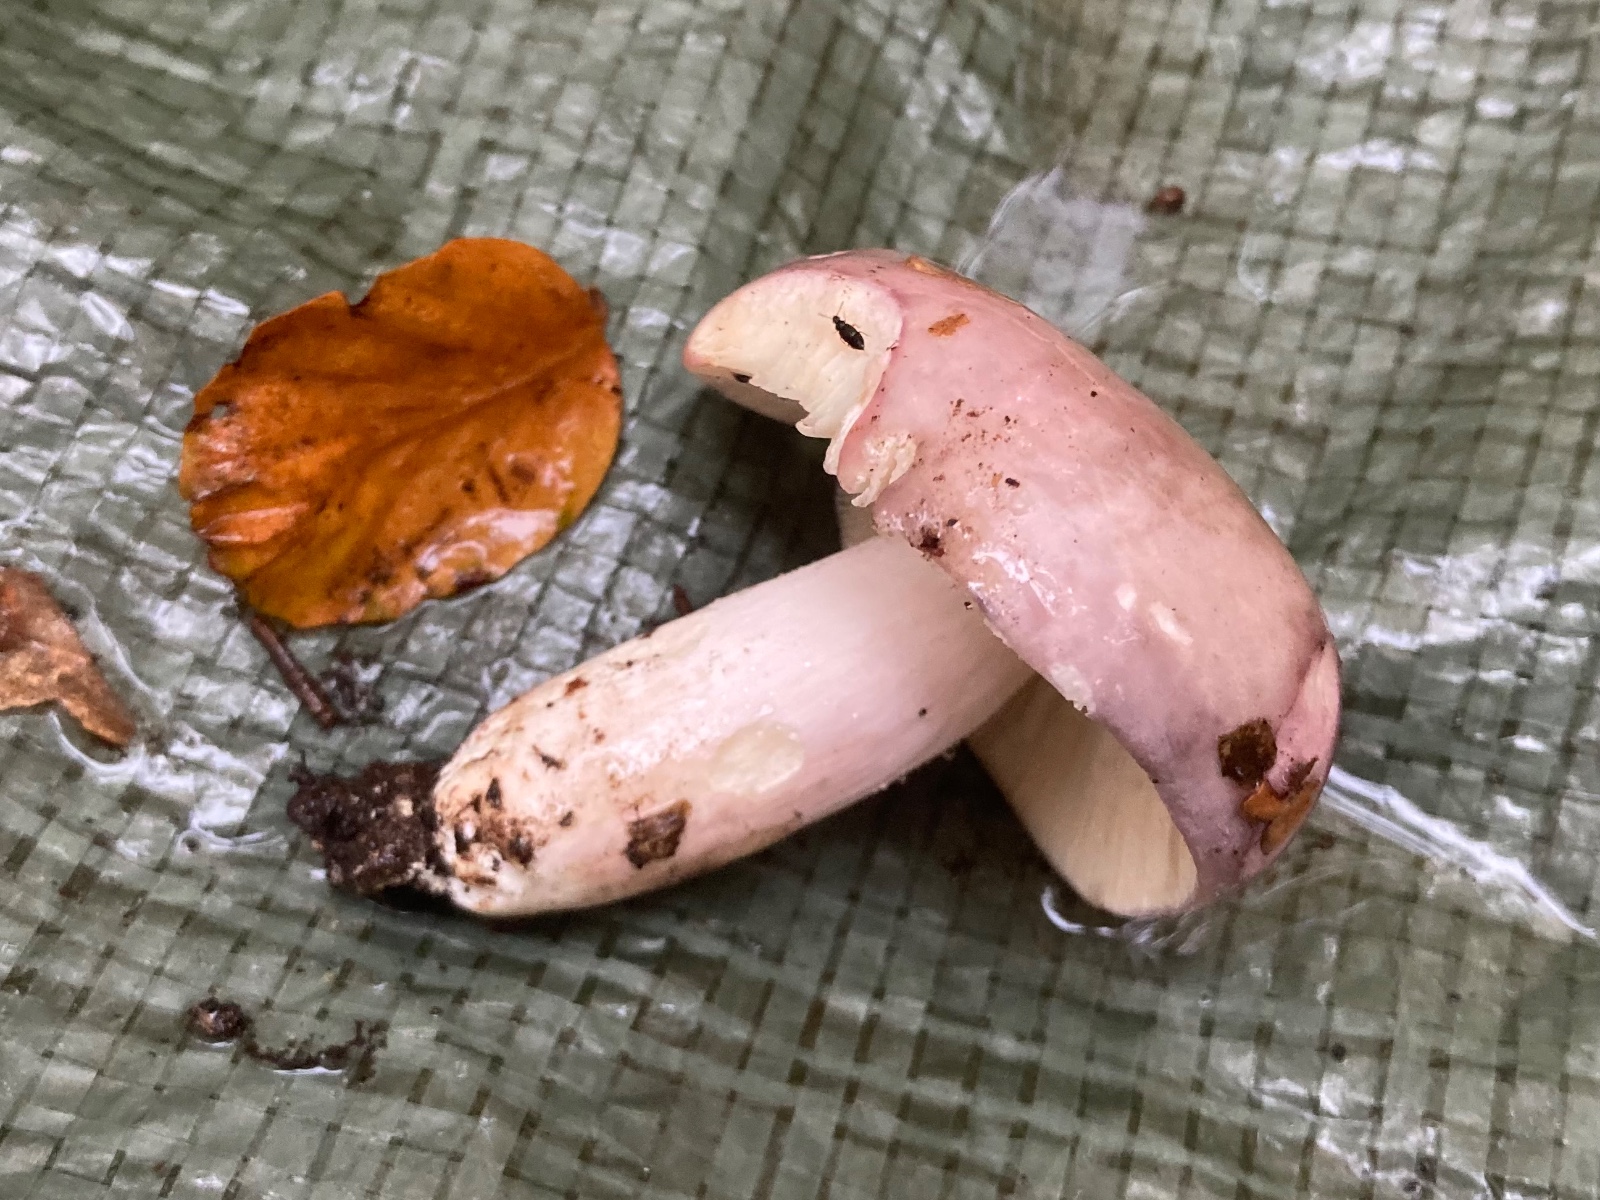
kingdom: Fungi
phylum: Basidiomycota
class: Agaricomycetes
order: Russulales
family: Russulaceae
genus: Russula
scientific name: Russula cyanoxantha
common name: broget skørhat
